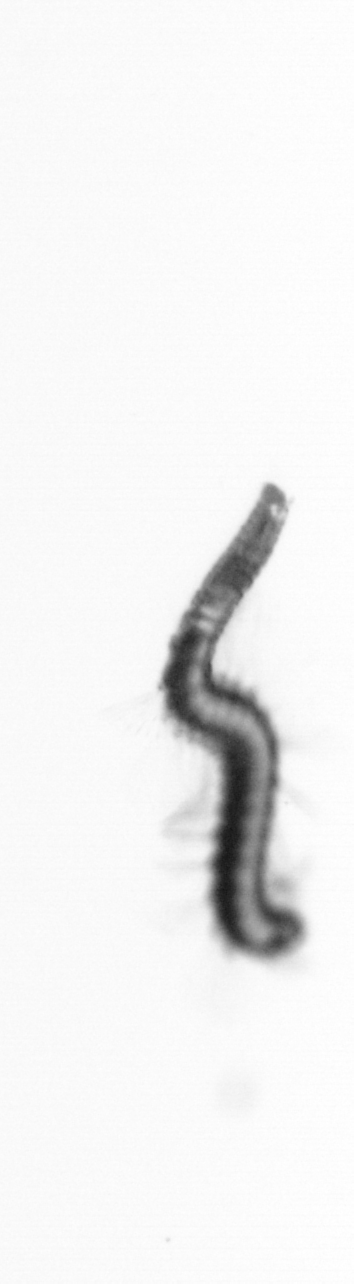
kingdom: Animalia
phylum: Annelida
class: Polychaeta
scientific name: Polychaeta
